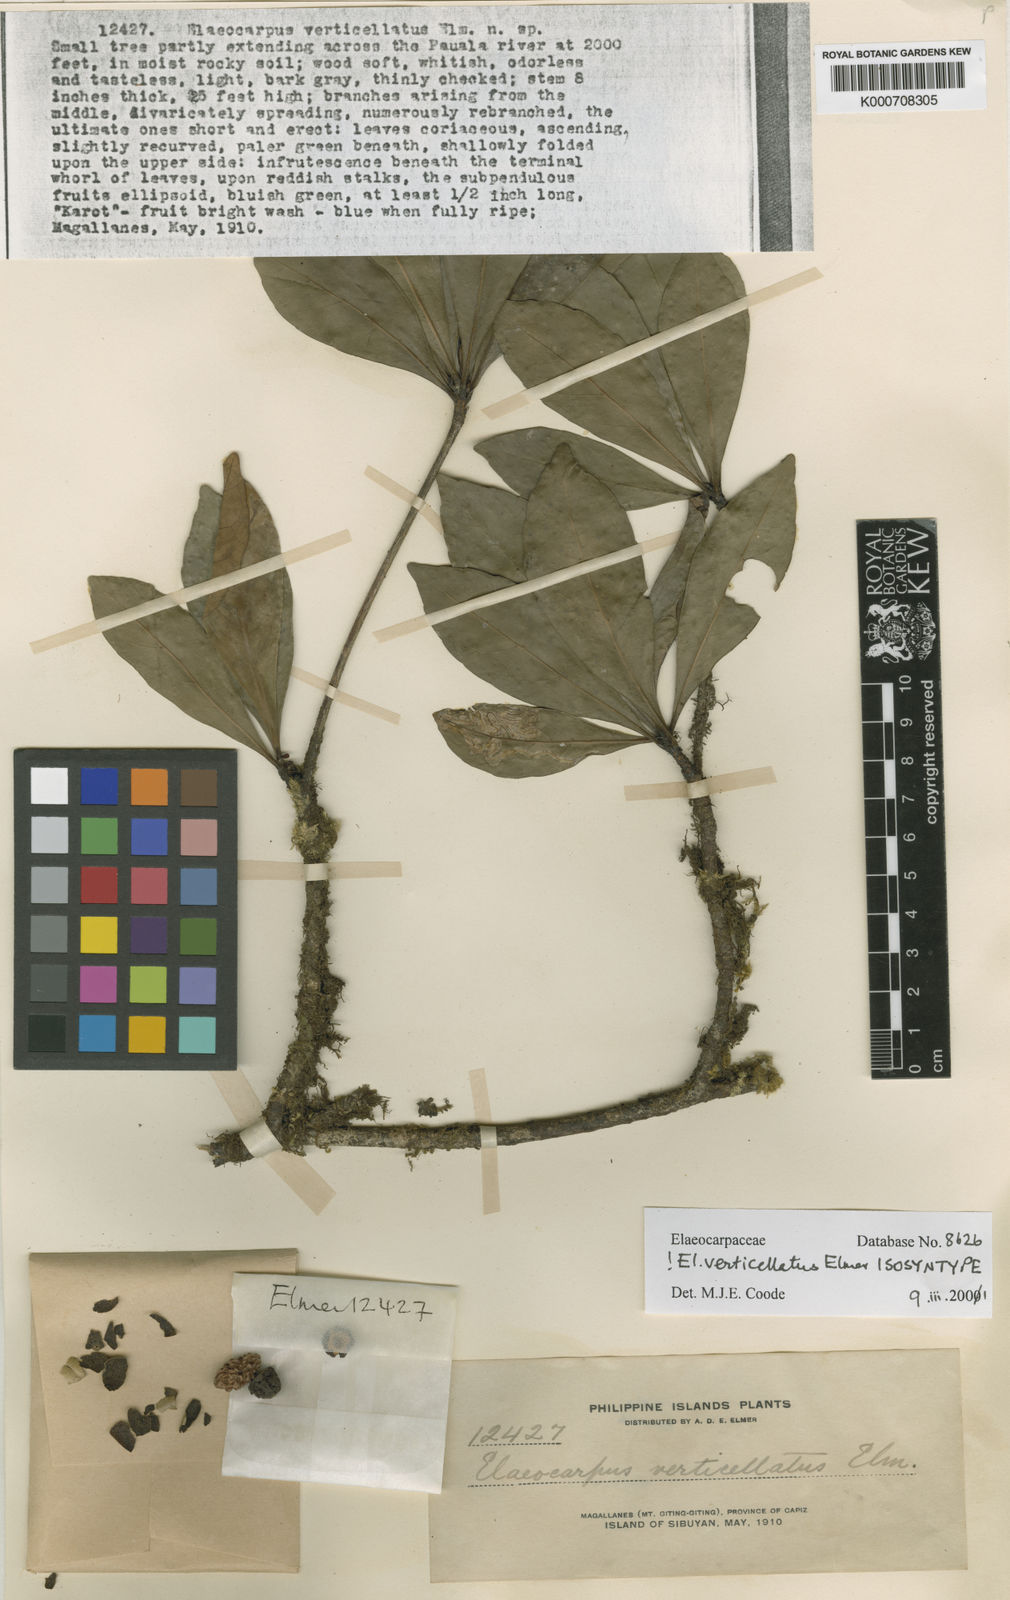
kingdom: Plantae
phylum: Tracheophyta
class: Magnoliopsida
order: Oxalidales
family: Elaeocarpaceae
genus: Elaeocarpus
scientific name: Elaeocarpus verticillatus
